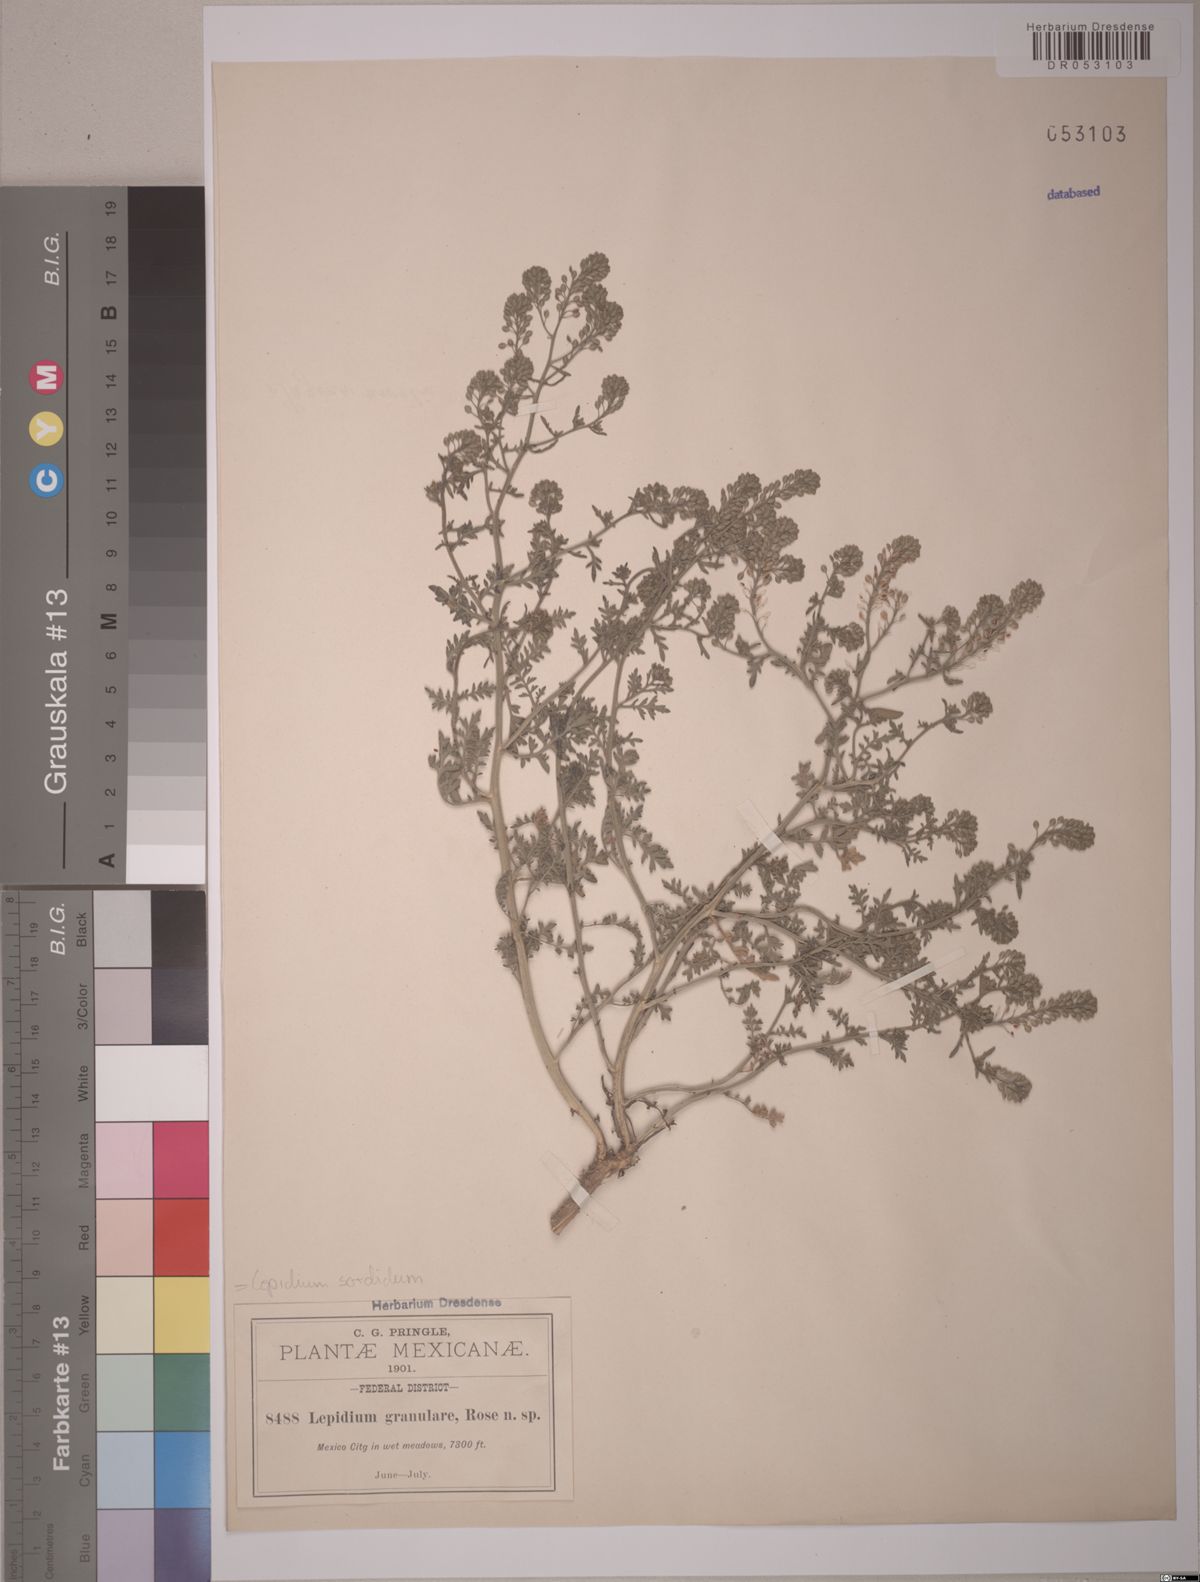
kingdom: Plantae
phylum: Tracheophyta
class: Magnoliopsida
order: Brassicales
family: Brassicaceae
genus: Lepidium
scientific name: Lepidium sordidum
